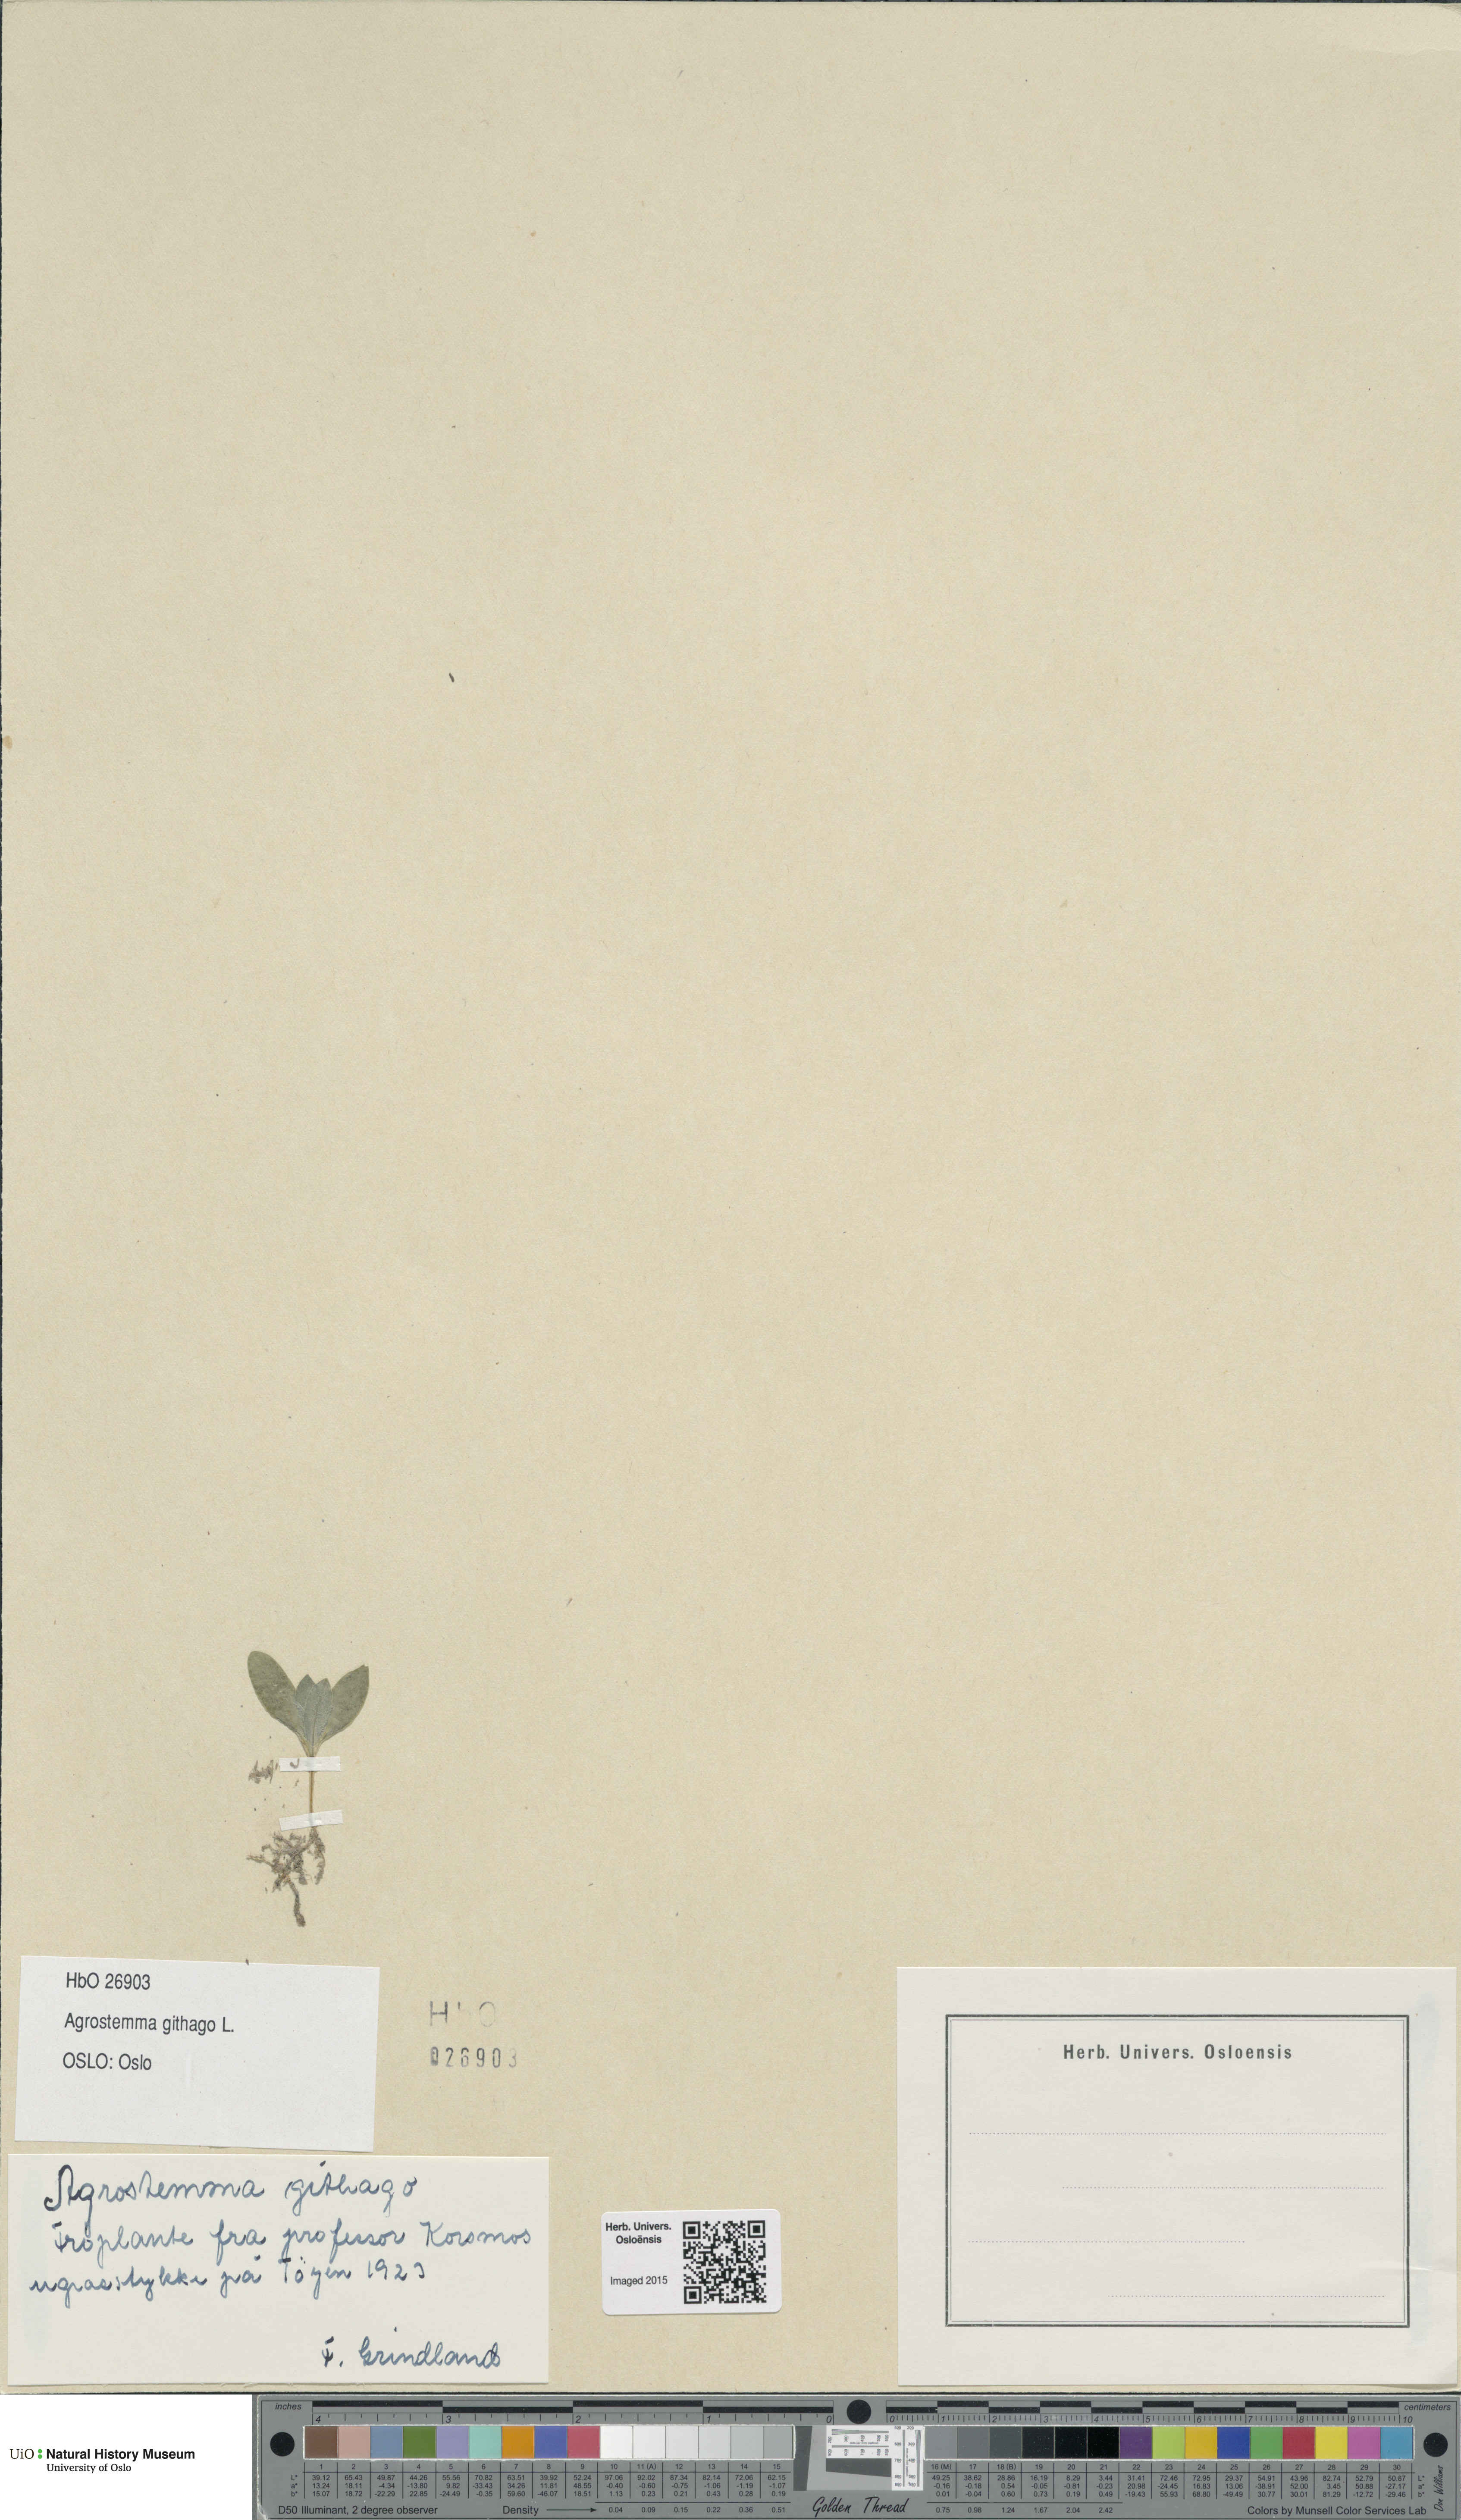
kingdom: Plantae
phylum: Tracheophyta
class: Magnoliopsida
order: Caryophyllales
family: Caryophyllaceae
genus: Agrostemma
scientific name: Agrostemma githago
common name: Common corncockle
